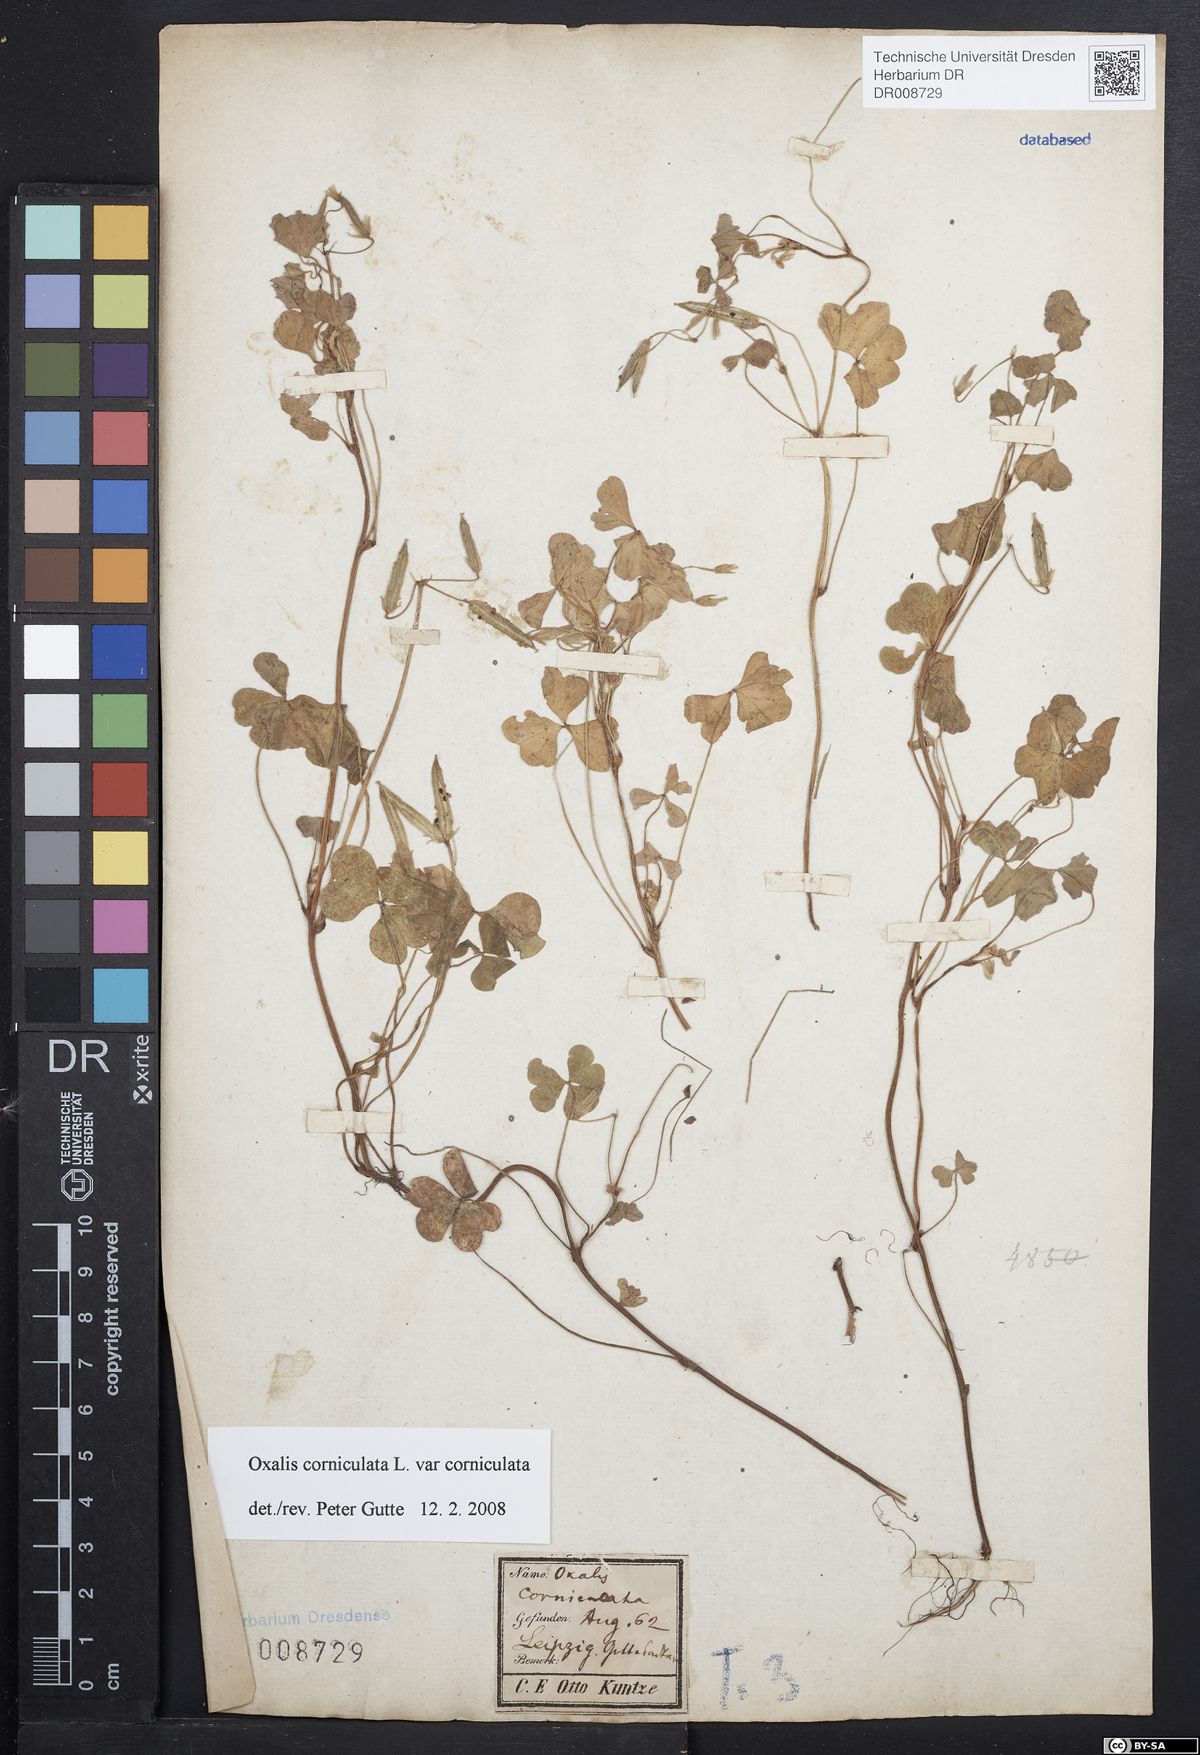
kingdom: Plantae
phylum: Tracheophyta
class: Magnoliopsida
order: Oxalidales
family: Oxalidaceae
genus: Oxalis
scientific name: Oxalis corniculata
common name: Procumbent yellow-sorrel
